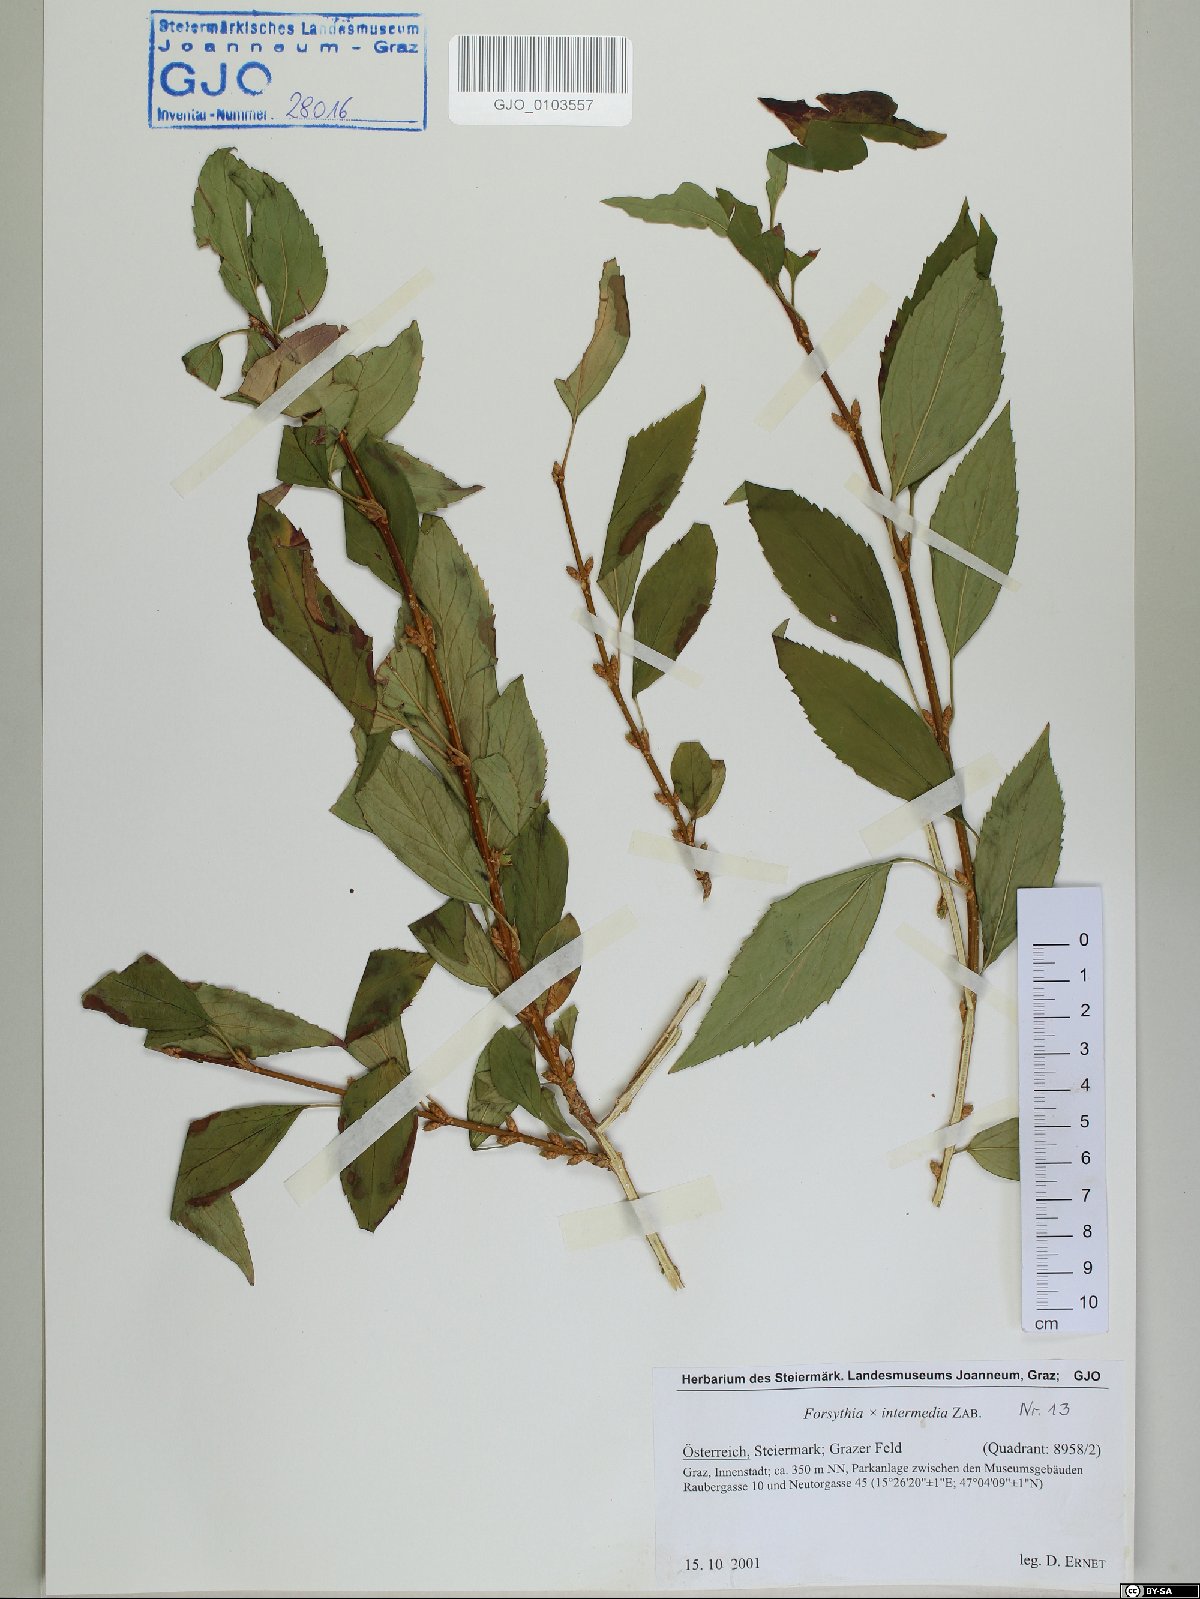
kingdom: Plantae
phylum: Tracheophyta
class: Magnoliopsida
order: Lamiales
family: Oleaceae
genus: Forsythia
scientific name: Forsythia intermedia
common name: Forsythia
